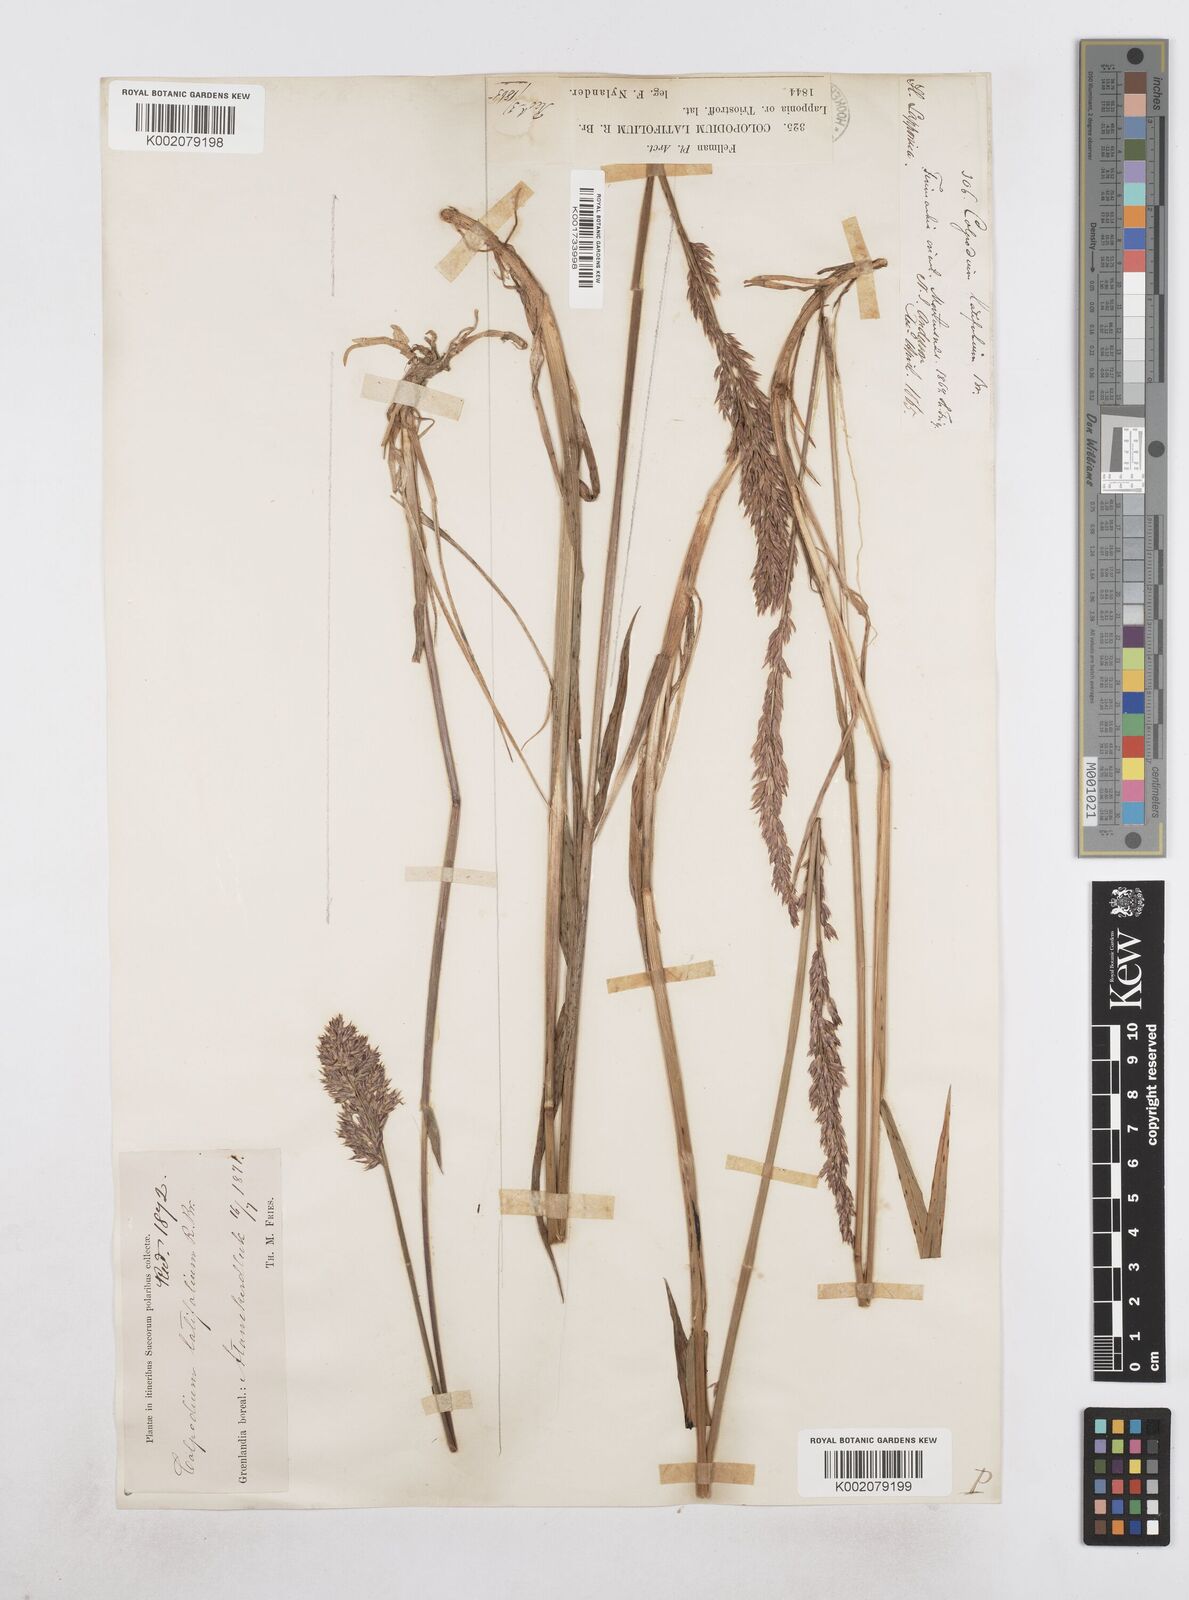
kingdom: Plantae
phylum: Tracheophyta
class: Liliopsida
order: Poales
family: Poaceae
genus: Arctagrostis
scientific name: Arctagrostis latifolia
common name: Arctic grass
